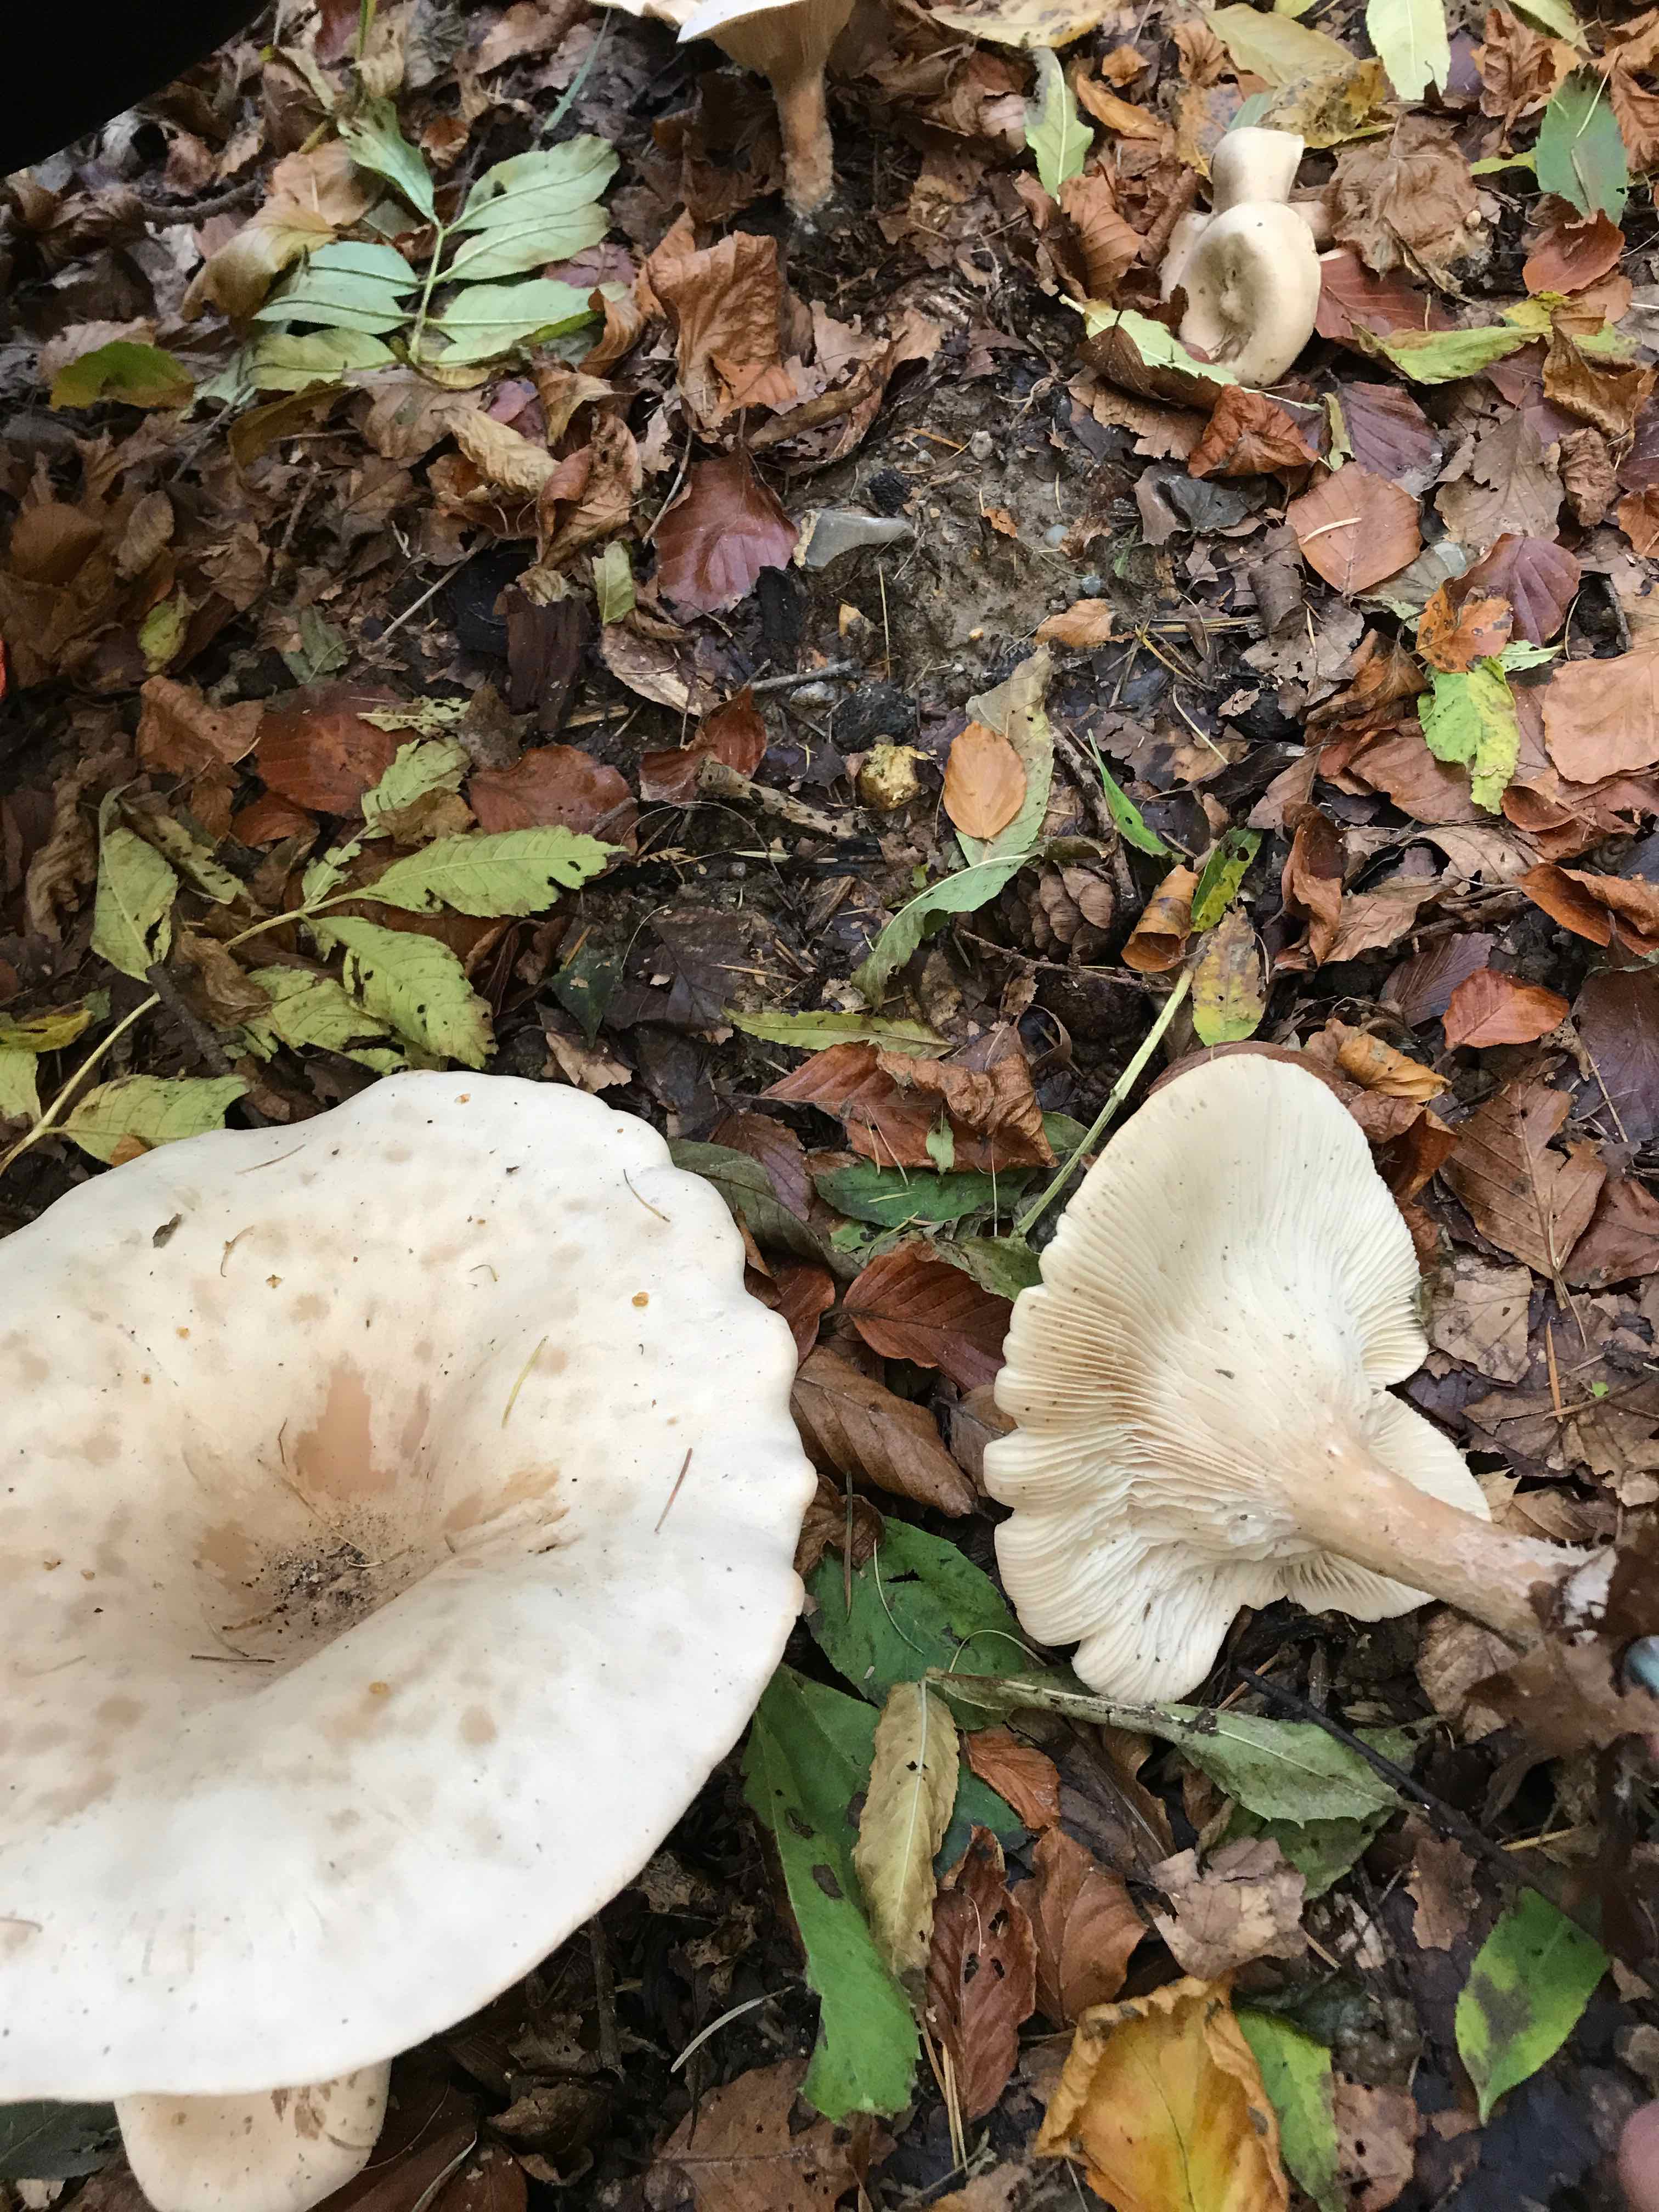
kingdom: Fungi
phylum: Basidiomycota
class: Agaricomycetes
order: Agaricales
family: Tricholomataceae
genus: Infundibulicybe
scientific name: Infundibulicybe geotropa
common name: stor tragthat
